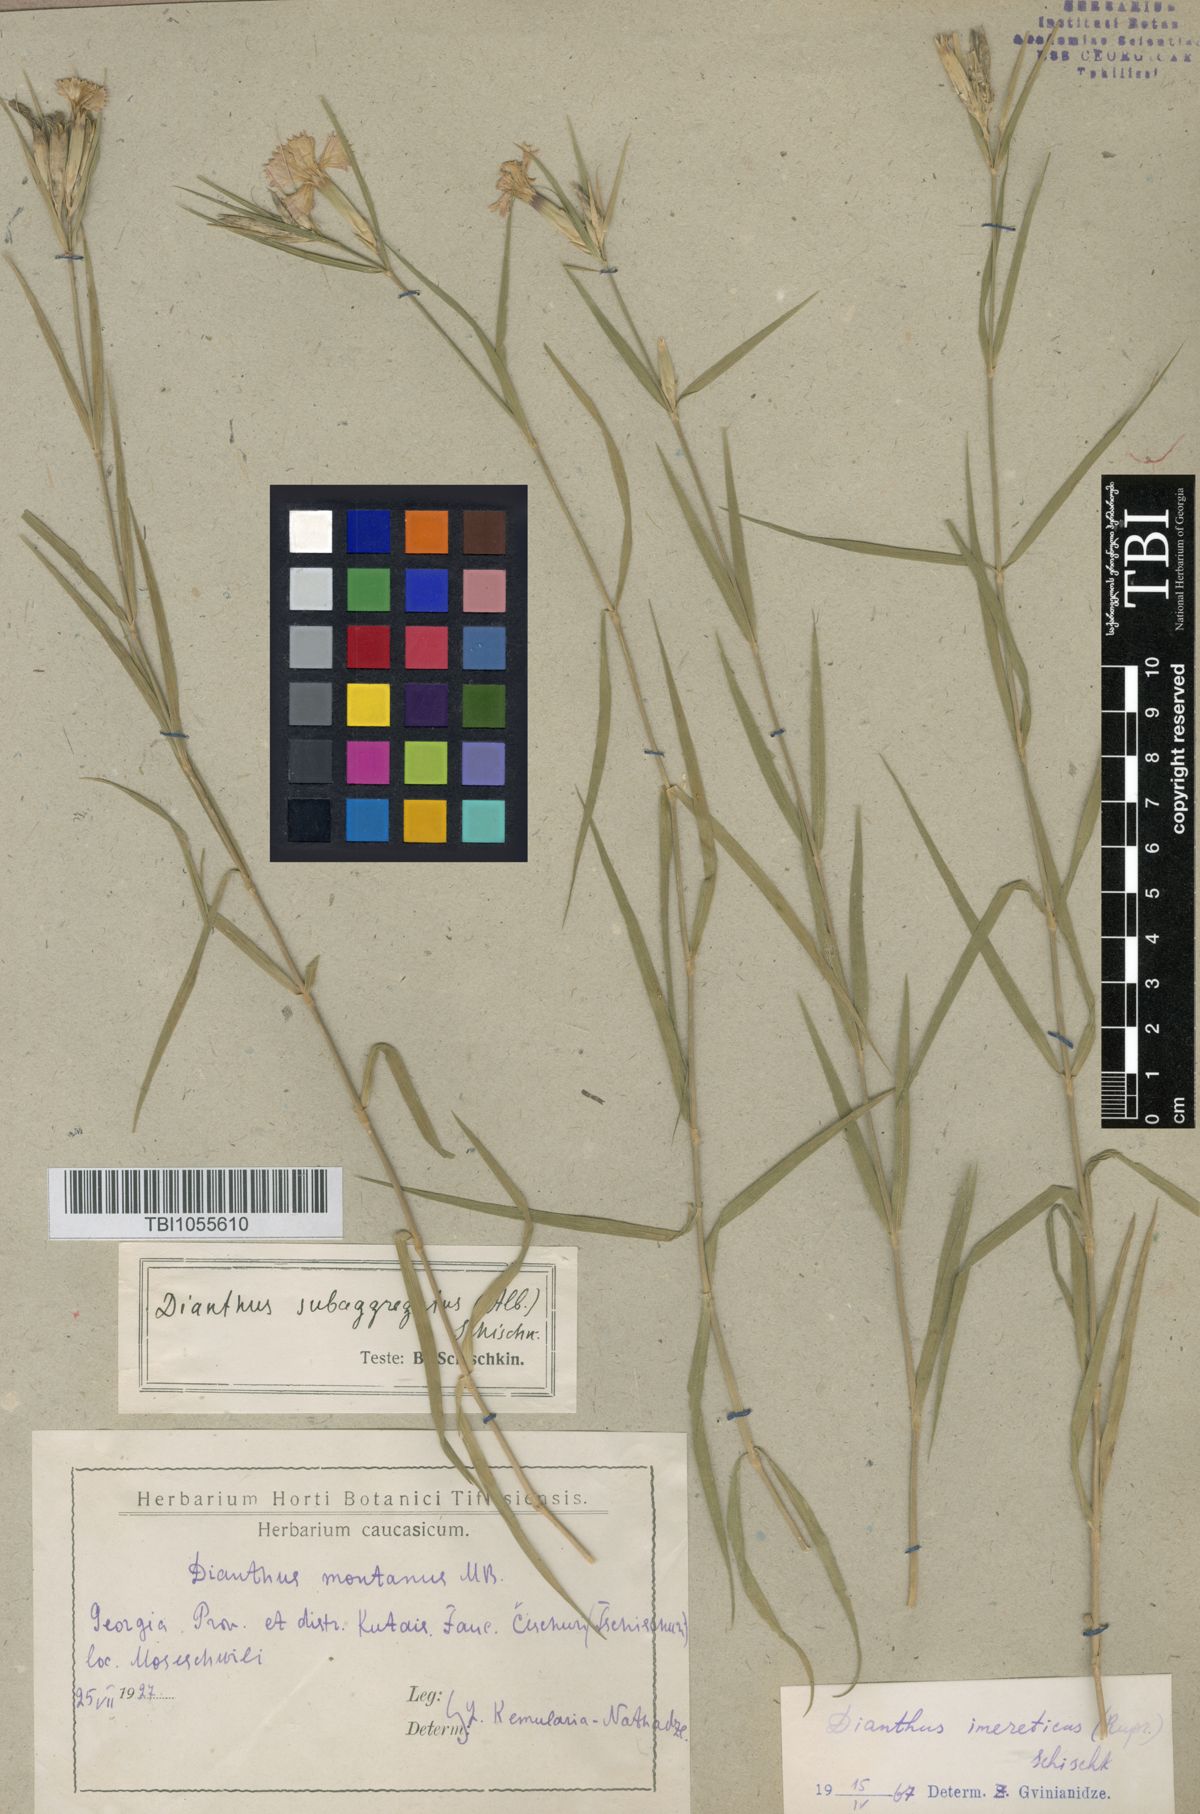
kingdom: Plantae
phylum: Tracheophyta
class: Magnoliopsida
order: Caryophyllales
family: Caryophyllaceae
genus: Dianthus
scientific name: Dianthus imereticus
